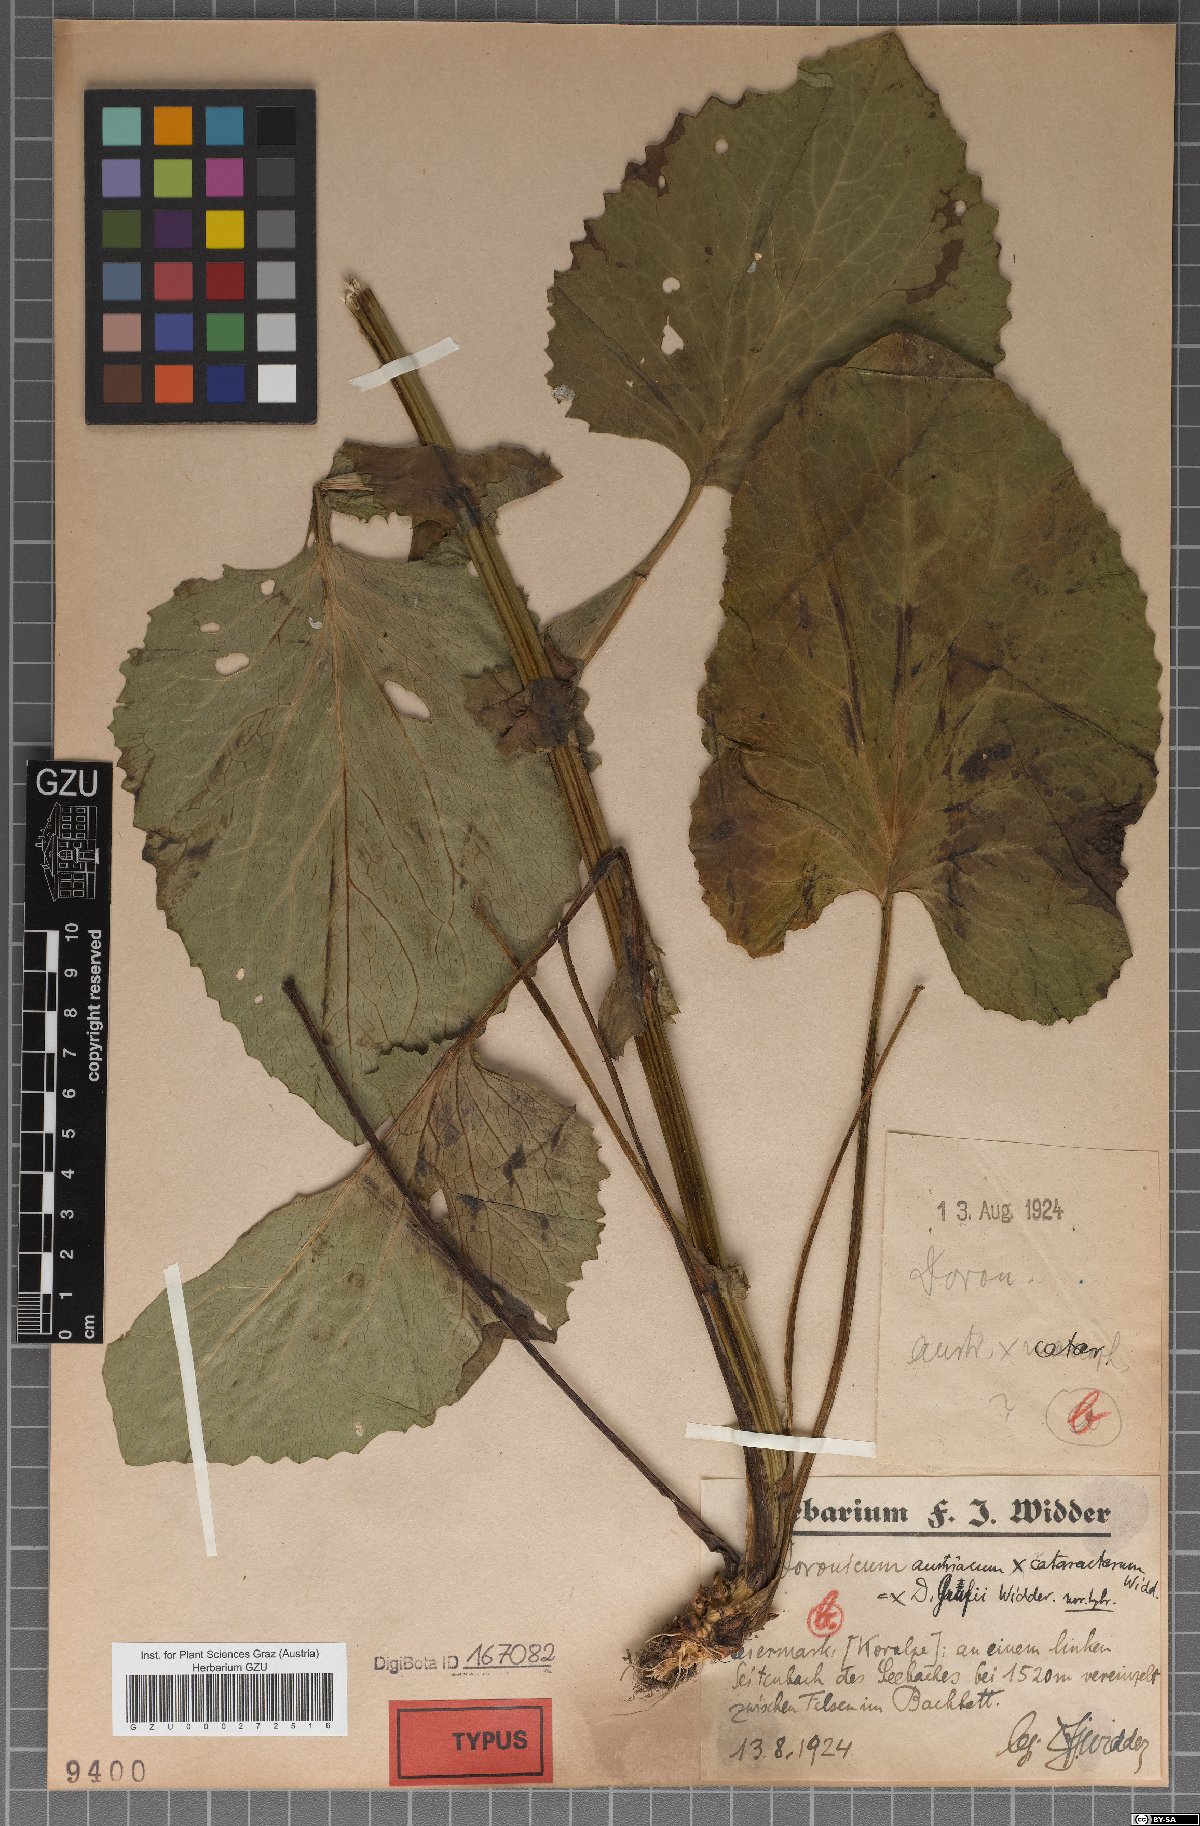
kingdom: Plantae
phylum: Tracheophyta
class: Magnoliopsida
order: Asterales
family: Asteraceae
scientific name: Asteraceae
